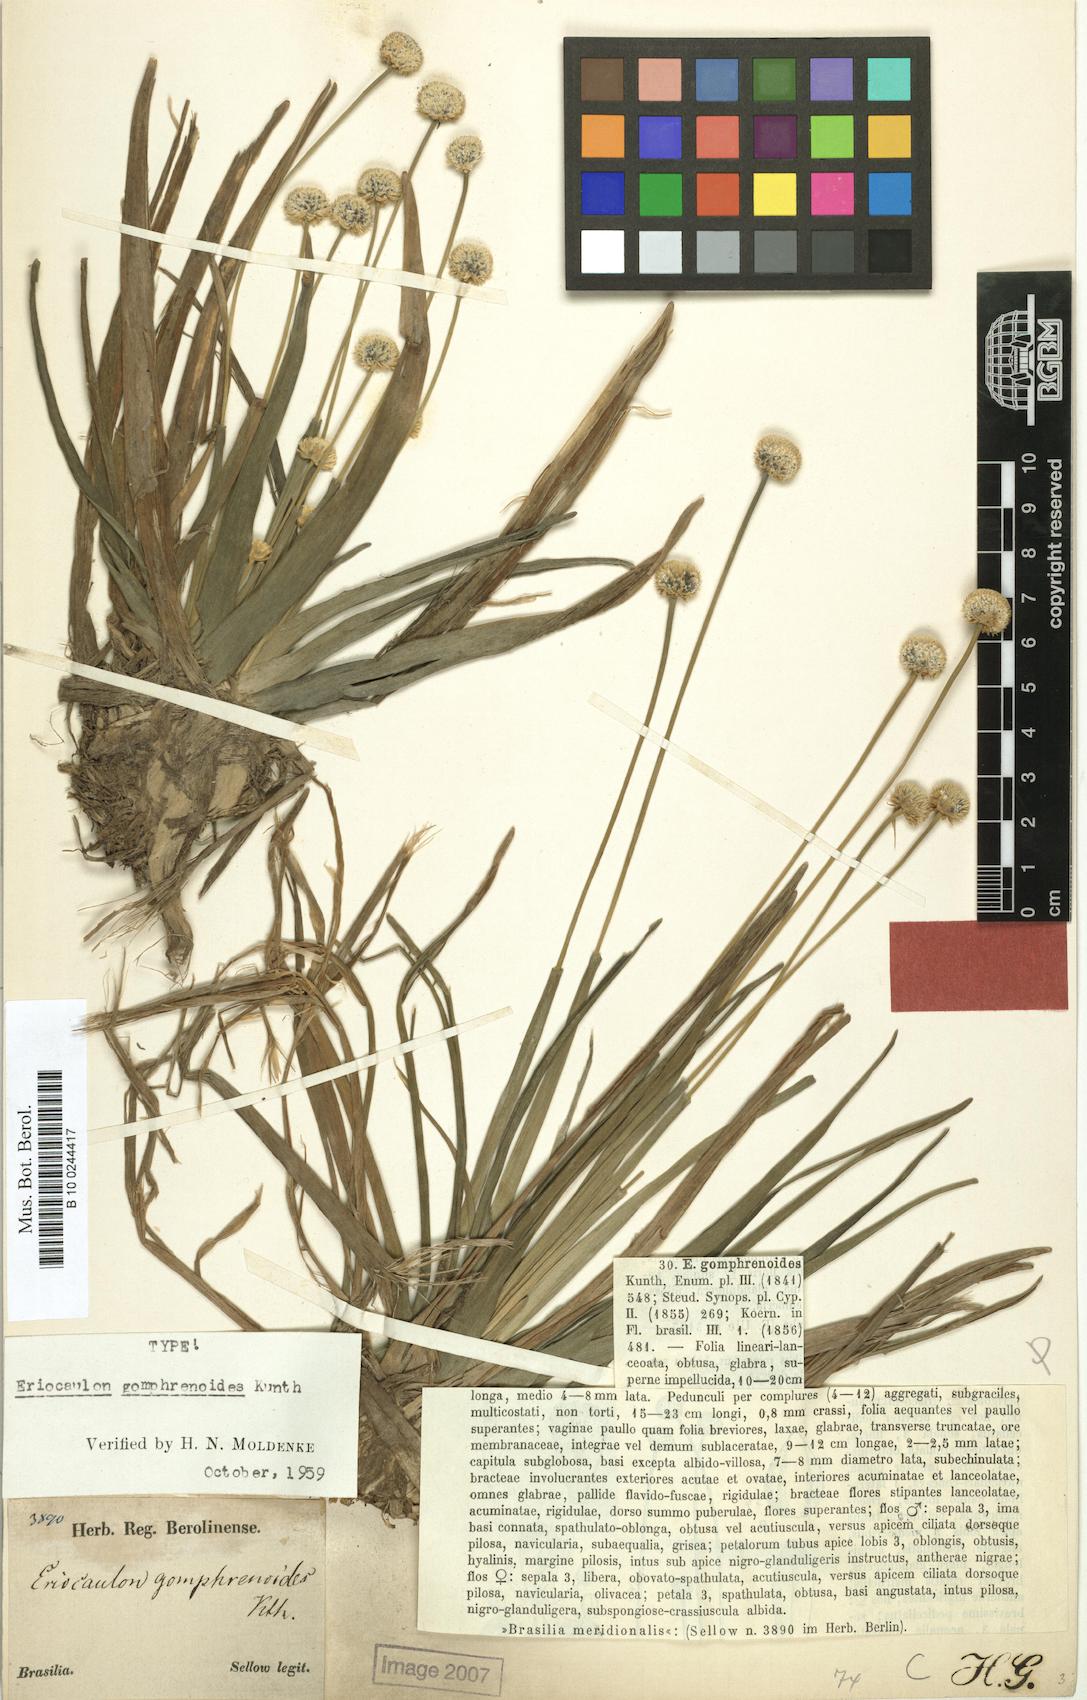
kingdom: Plantae
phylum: Tracheophyta
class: Liliopsida
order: Poales
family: Eriocaulaceae
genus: Eriocaulon
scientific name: Eriocaulon gomphrenoides
